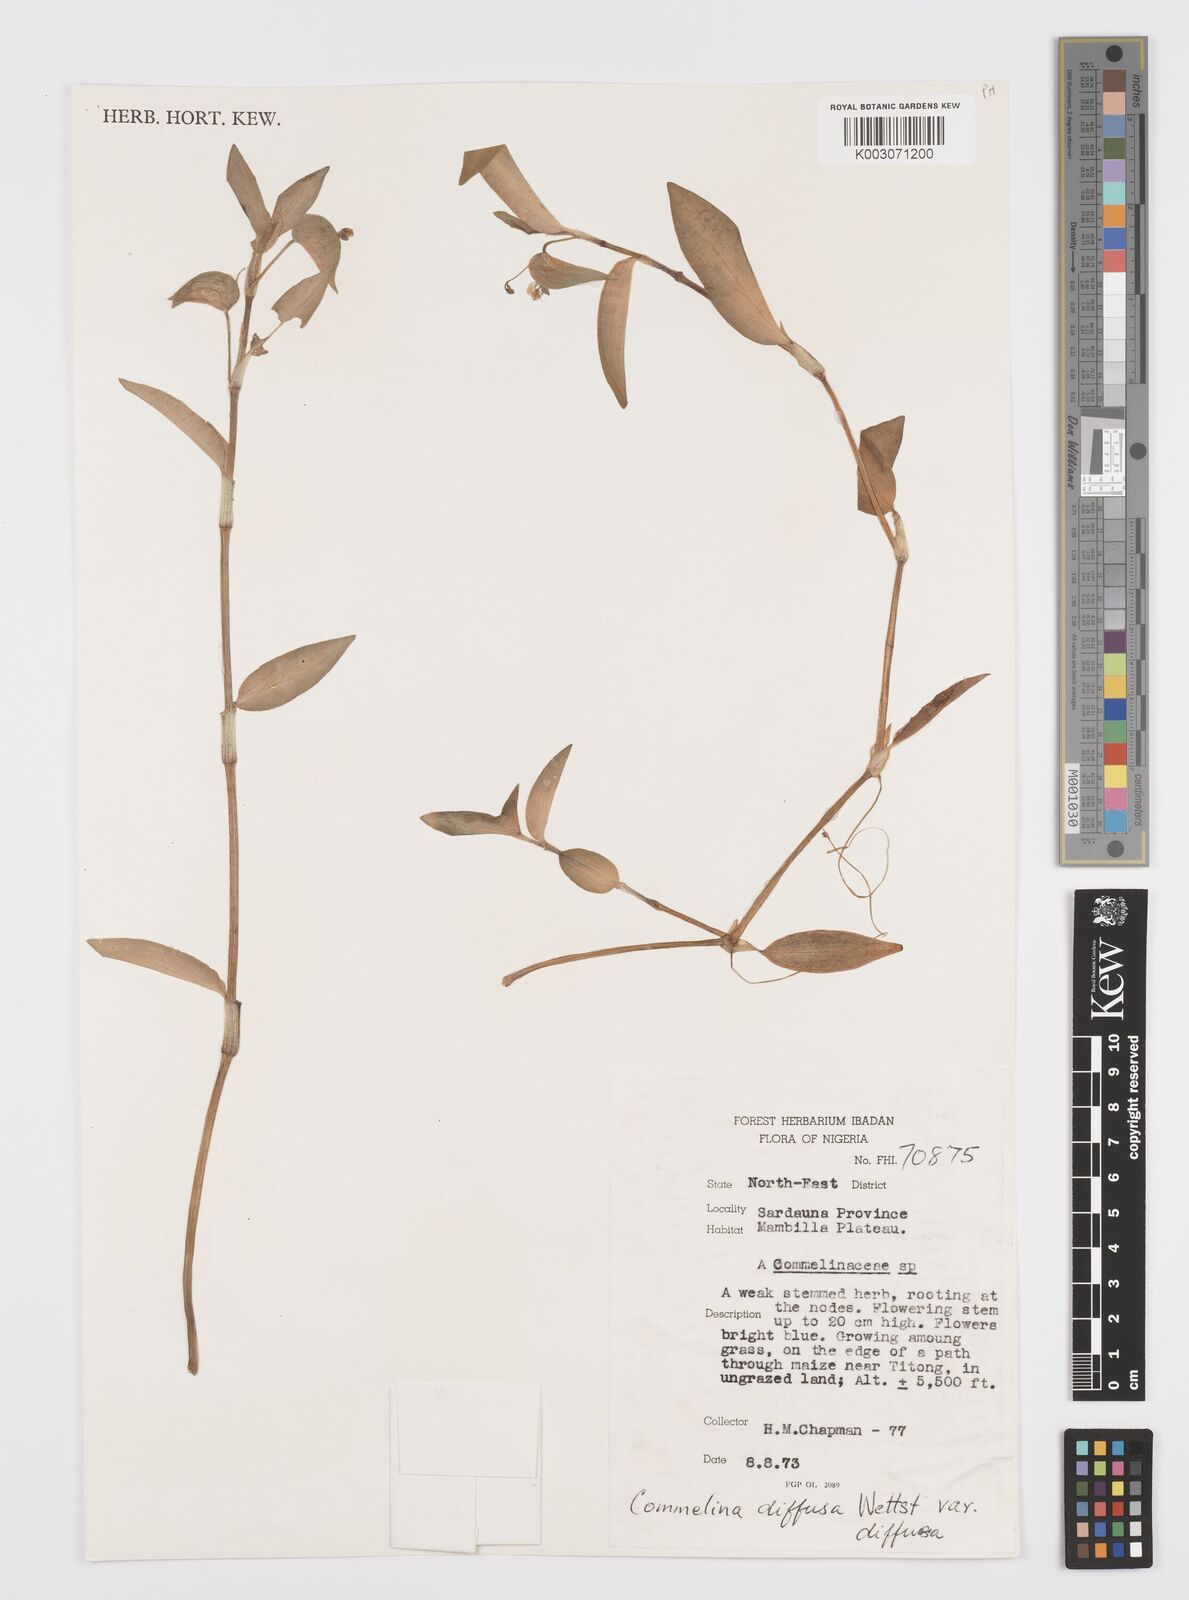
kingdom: Plantae
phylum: Tracheophyta
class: Liliopsida
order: Commelinales
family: Commelinaceae
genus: Commelina
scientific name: Commelina diffusa
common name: Climbing dayflower
